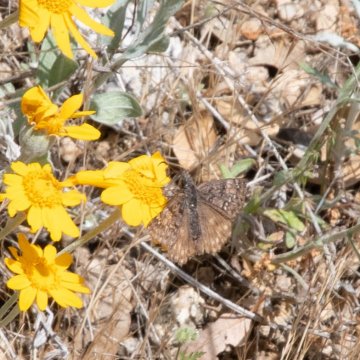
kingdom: Animalia
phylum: Arthropoda
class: Insecta
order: Lepidoptera
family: Hesperiidae
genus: Erynnis
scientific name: Erynnis propertius
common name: Propertius Duskywing
